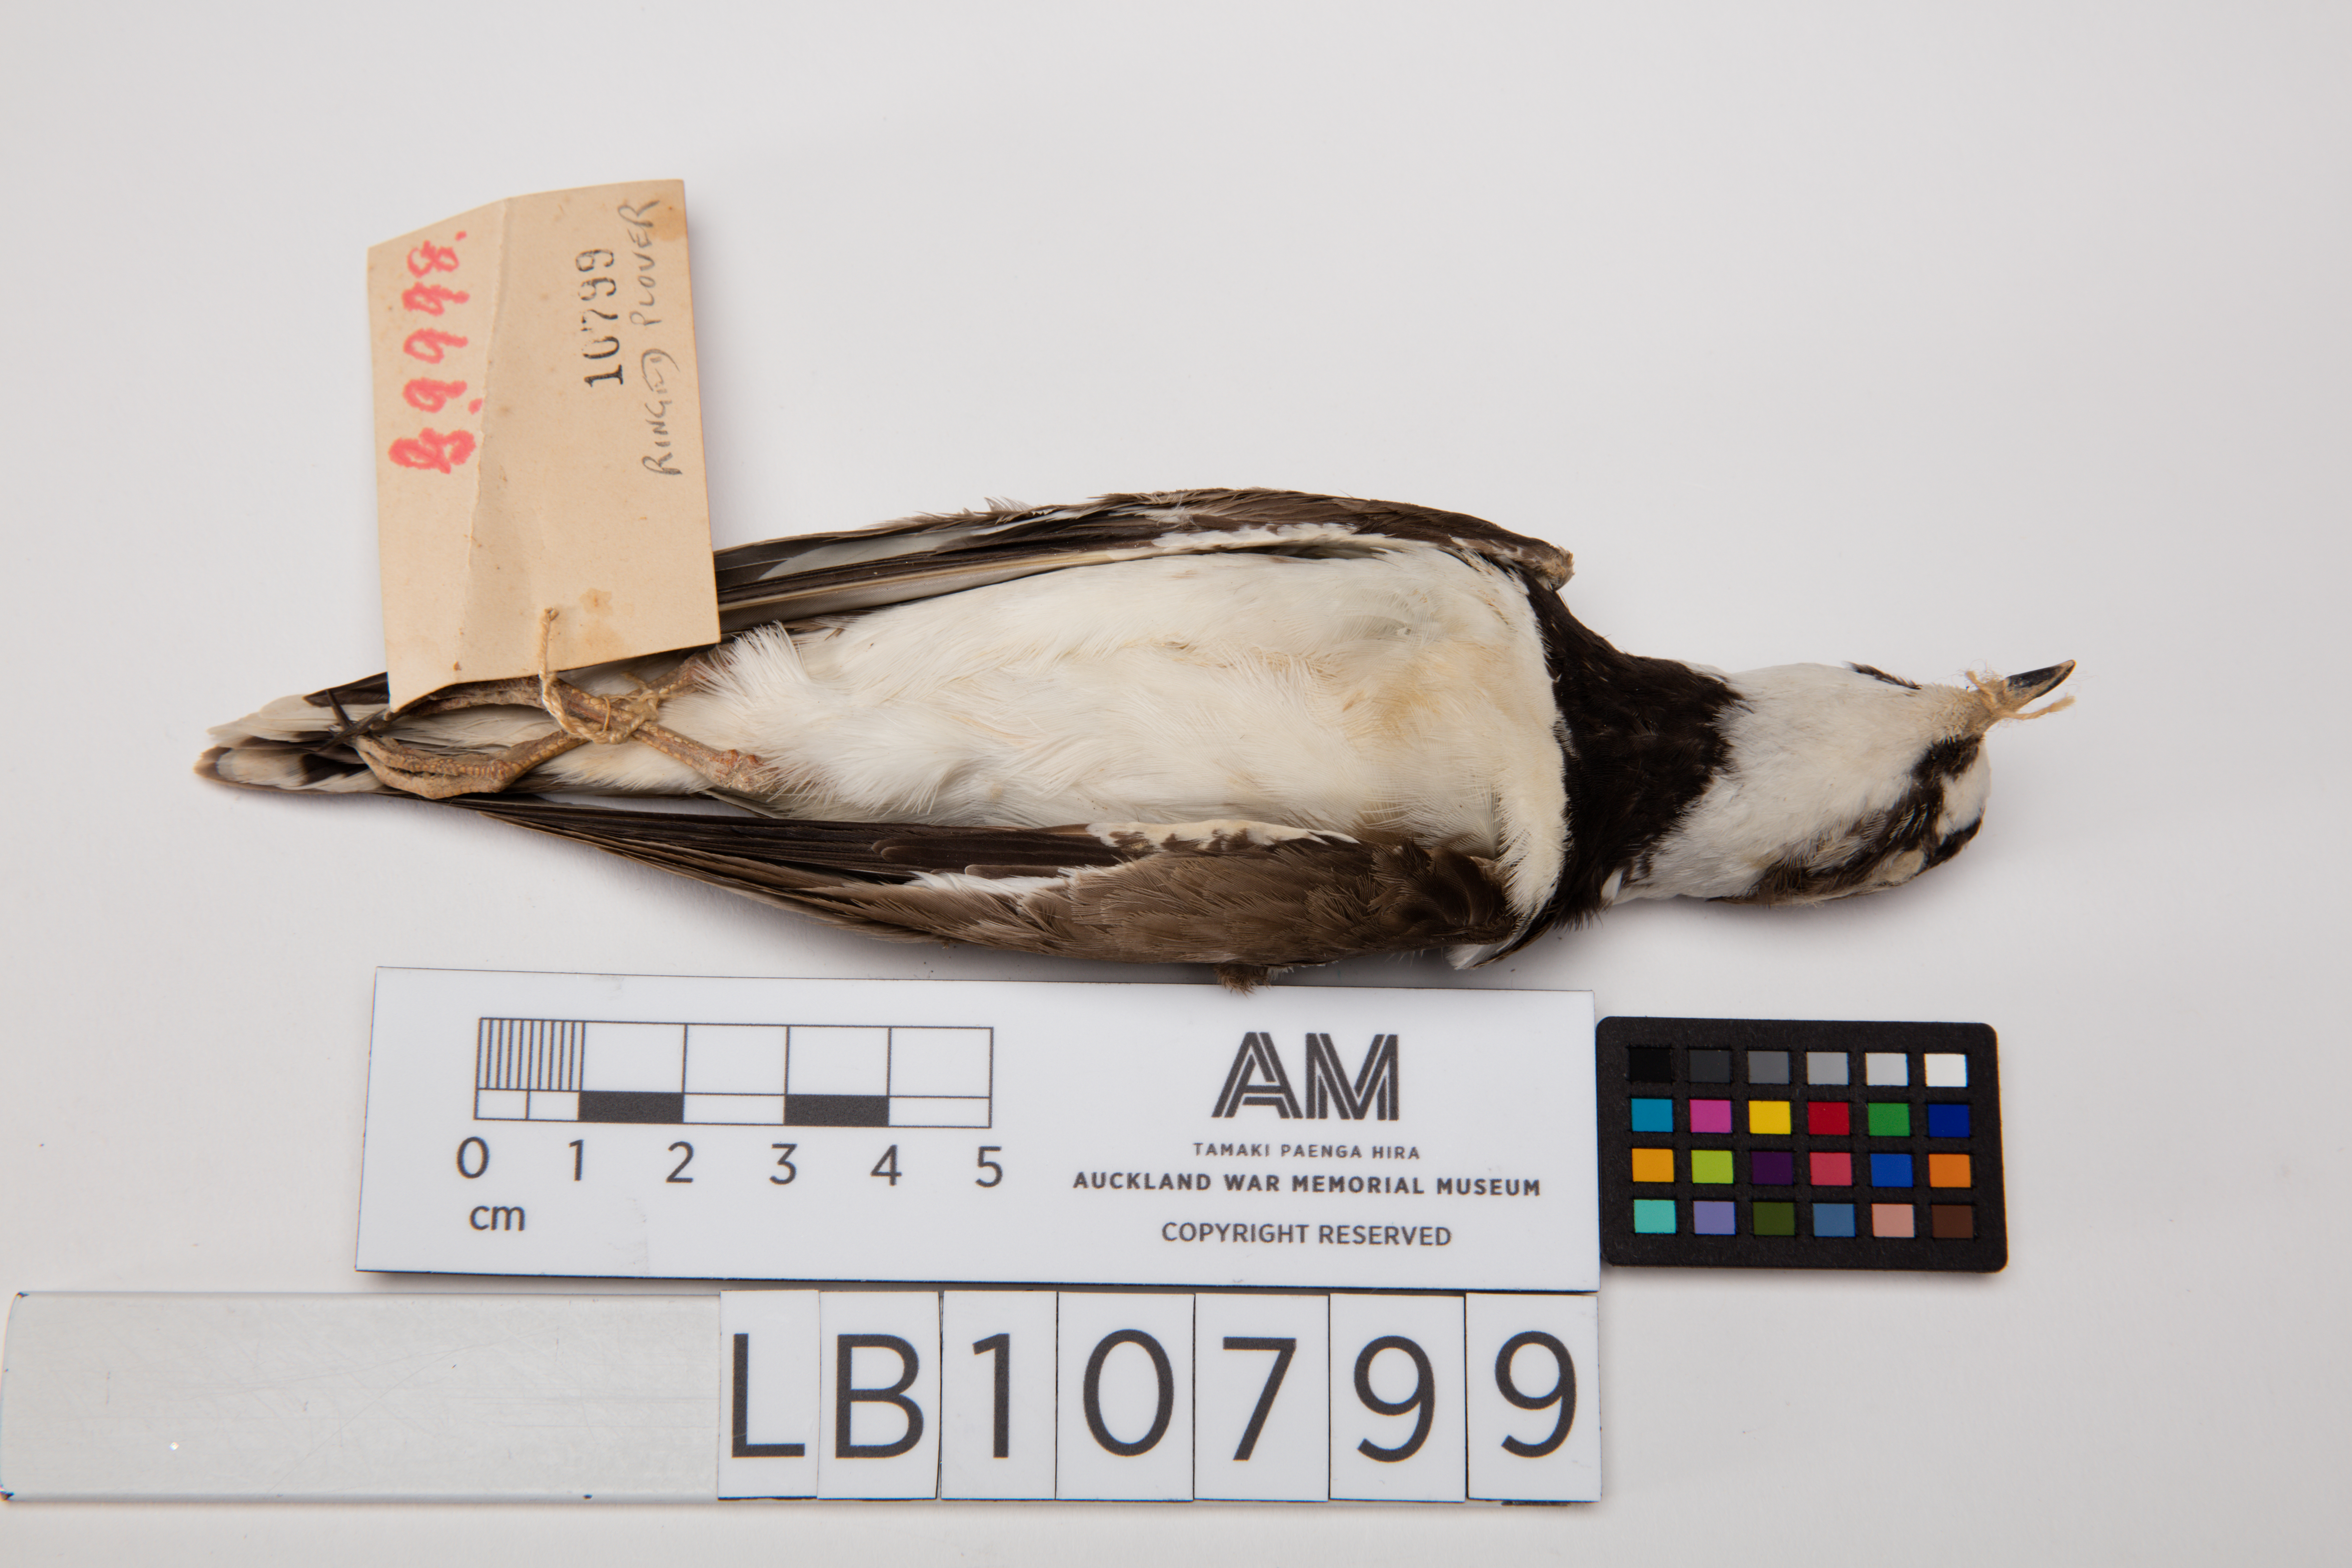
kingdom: Animalia
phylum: Chordata
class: Aves
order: Charadriiformes
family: Charadriidae
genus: Charadrius
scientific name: Charadrius hiaticula
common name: Common ringed plover
